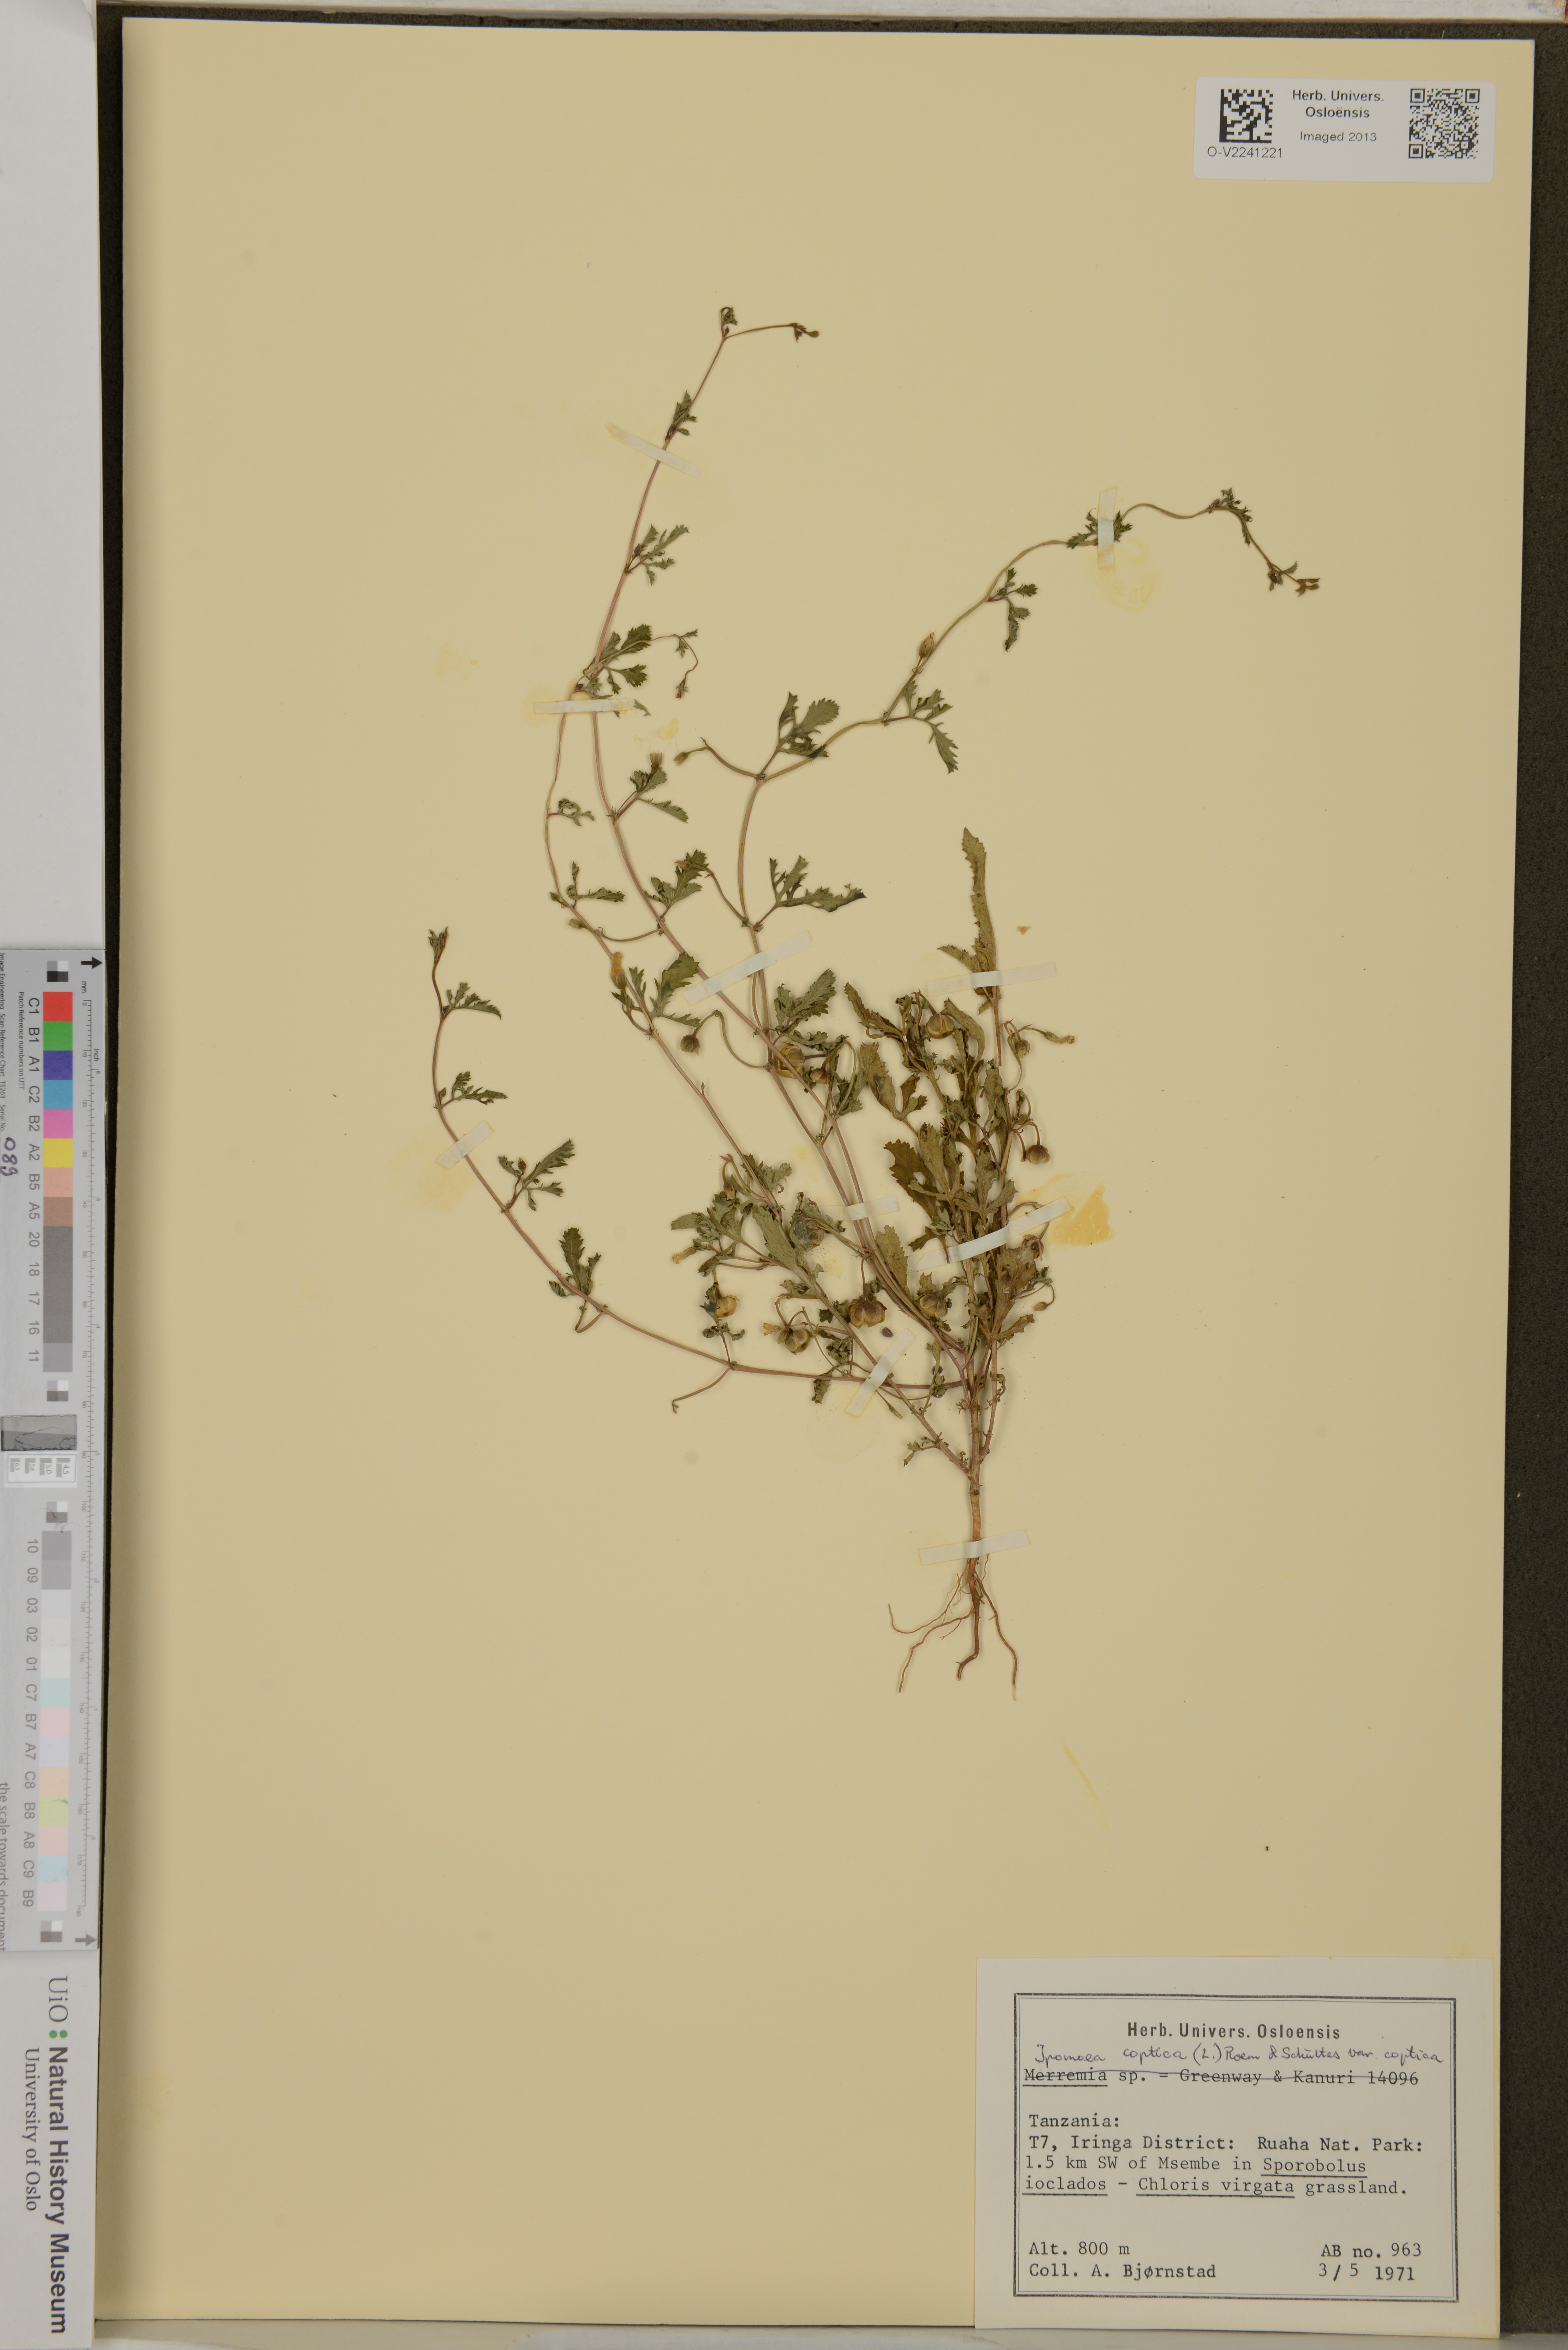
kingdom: Plantae
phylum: Tracheophyta
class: Magnoliopsida
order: Solanales
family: Convolvulaceae
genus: Ipomoea
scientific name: Ipomoea coptica
